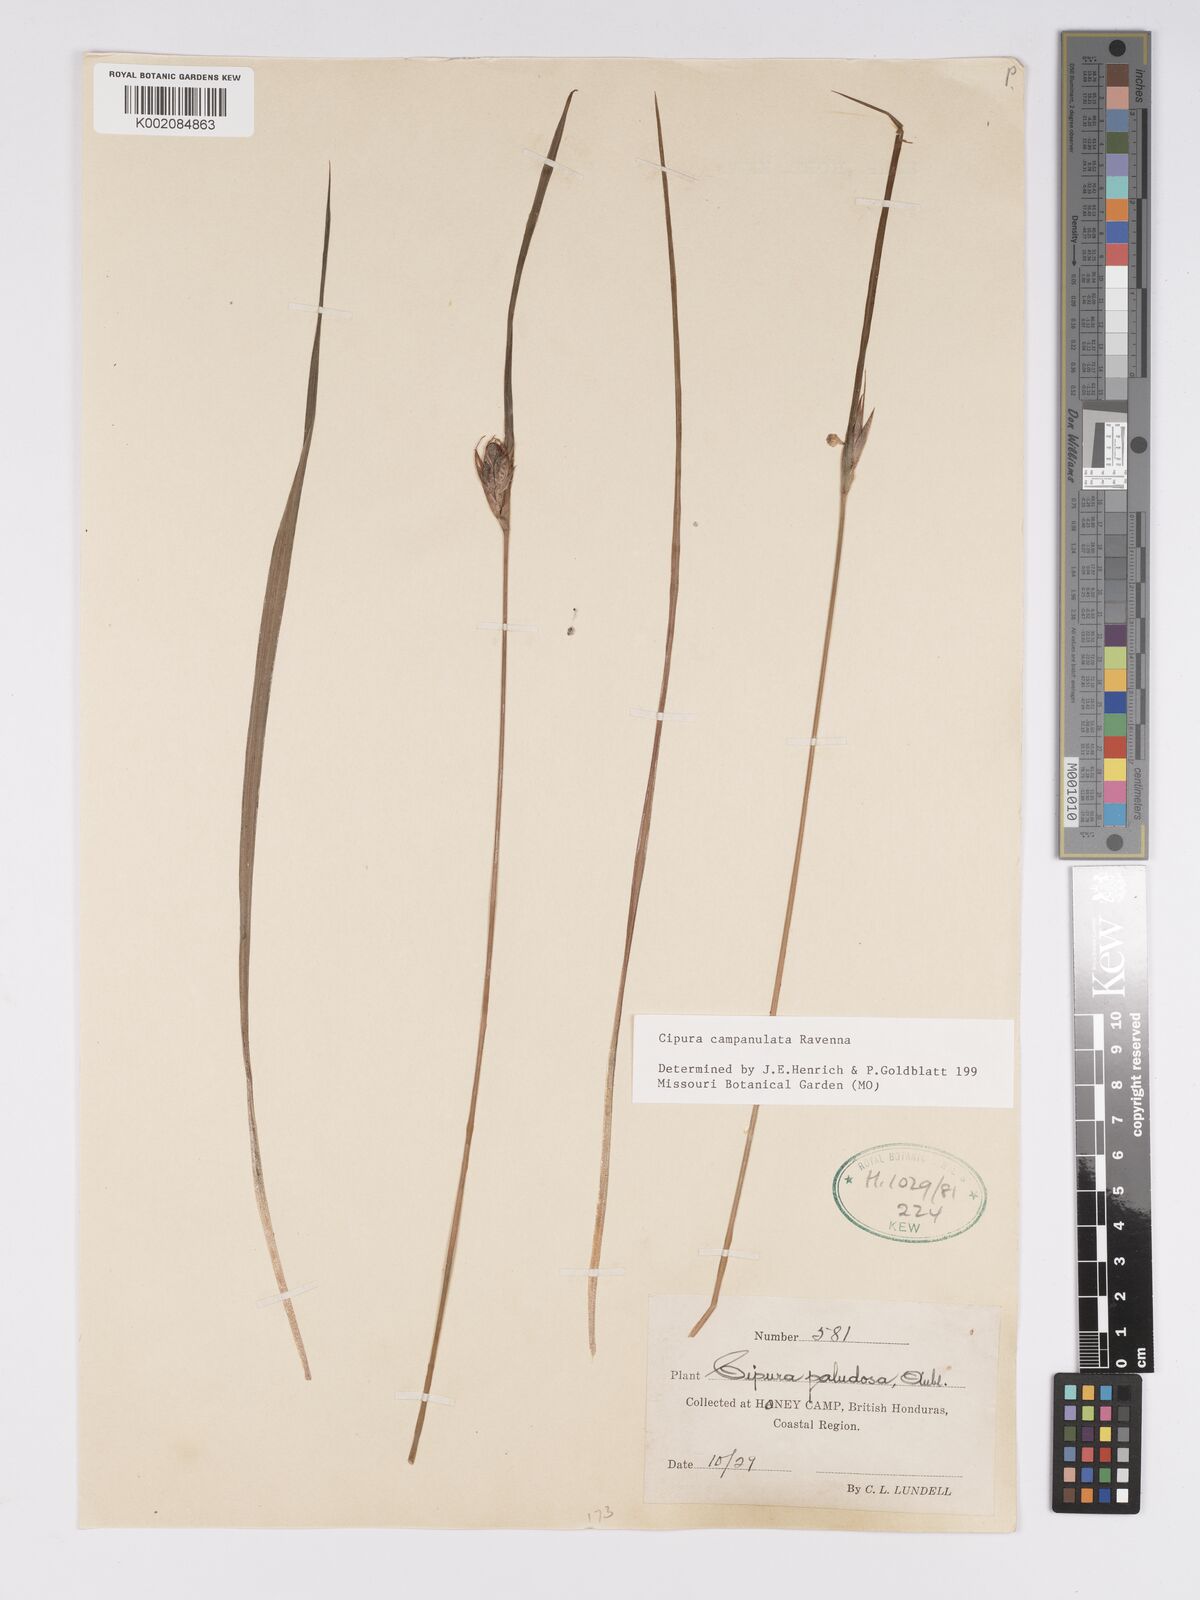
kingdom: Plantae
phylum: Tracheophyta
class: Liliopsida
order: Asparagales
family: Iridaceae
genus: Cipura
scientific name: Cipura campanulata
